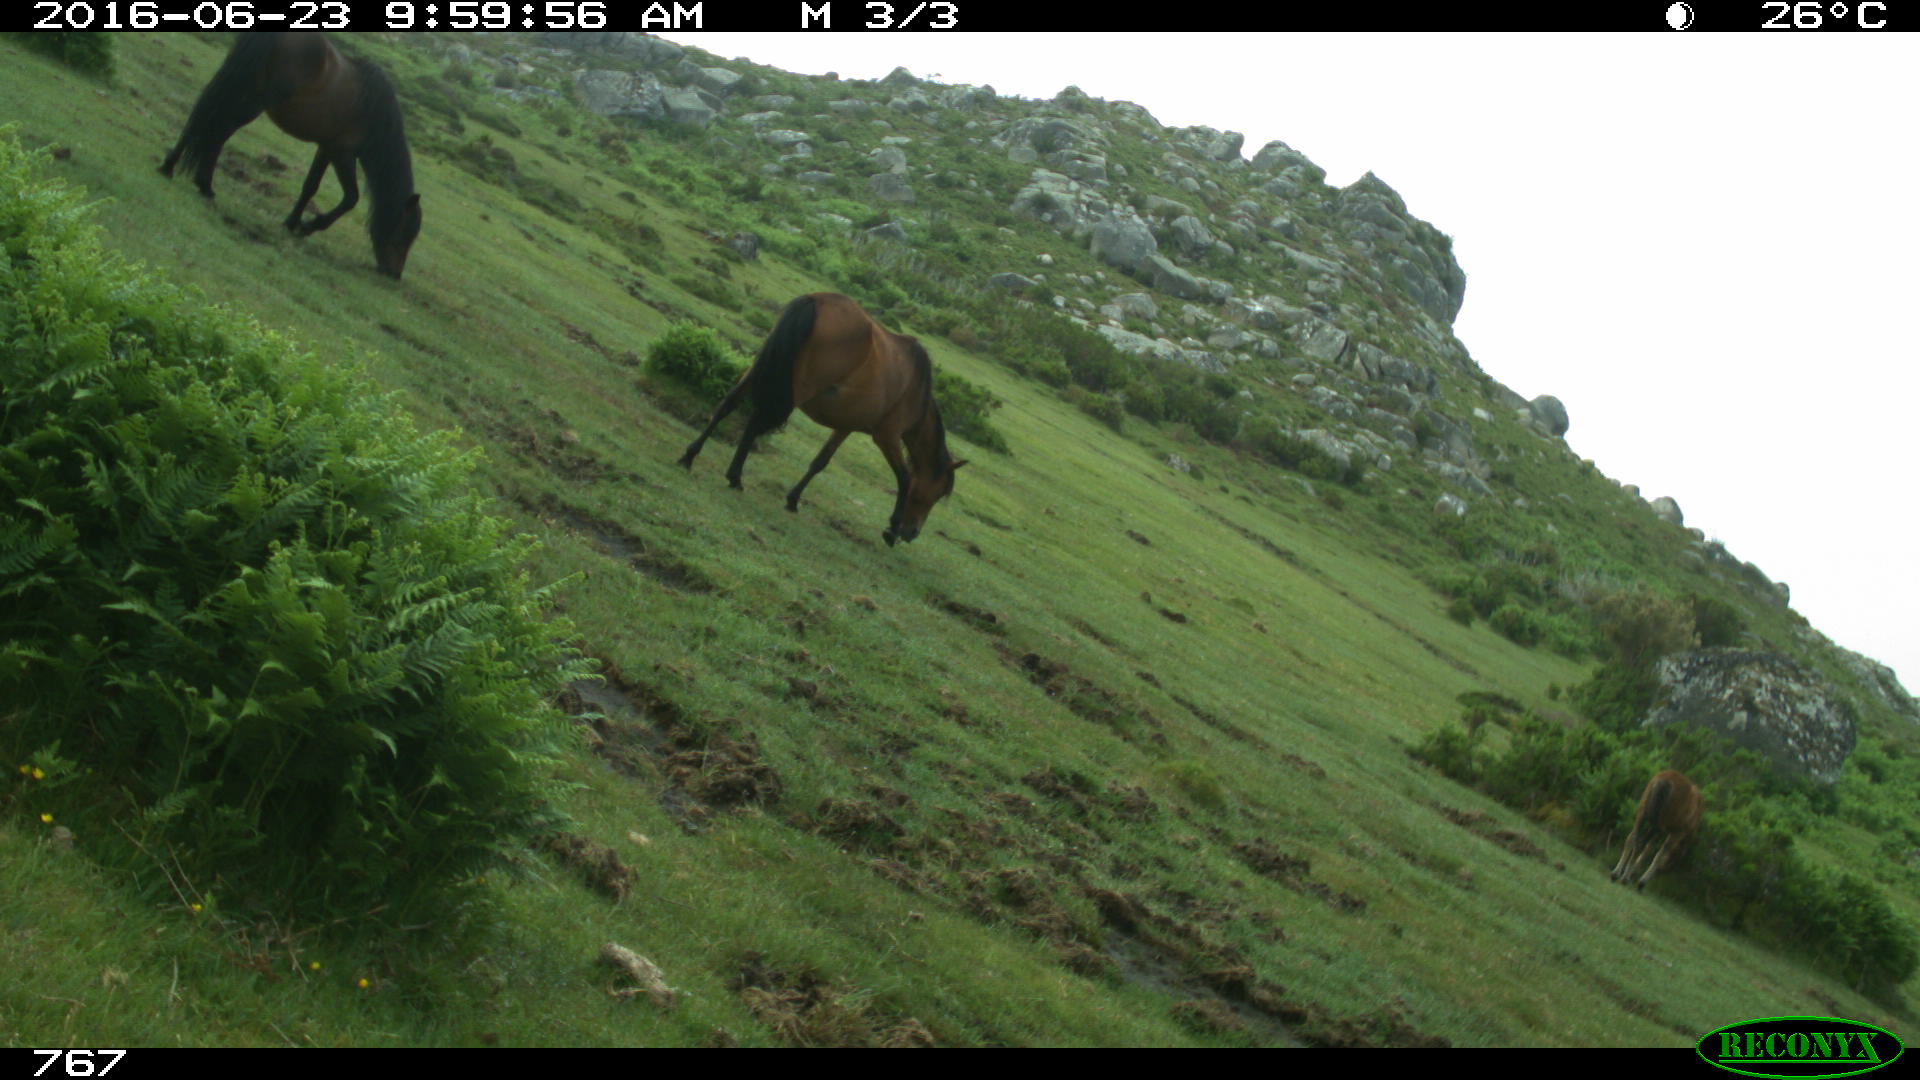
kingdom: Animalia
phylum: Chordata
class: Mammalia
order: Perissodactyla
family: Equidae
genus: Equus
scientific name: Equus caballus
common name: Horse
